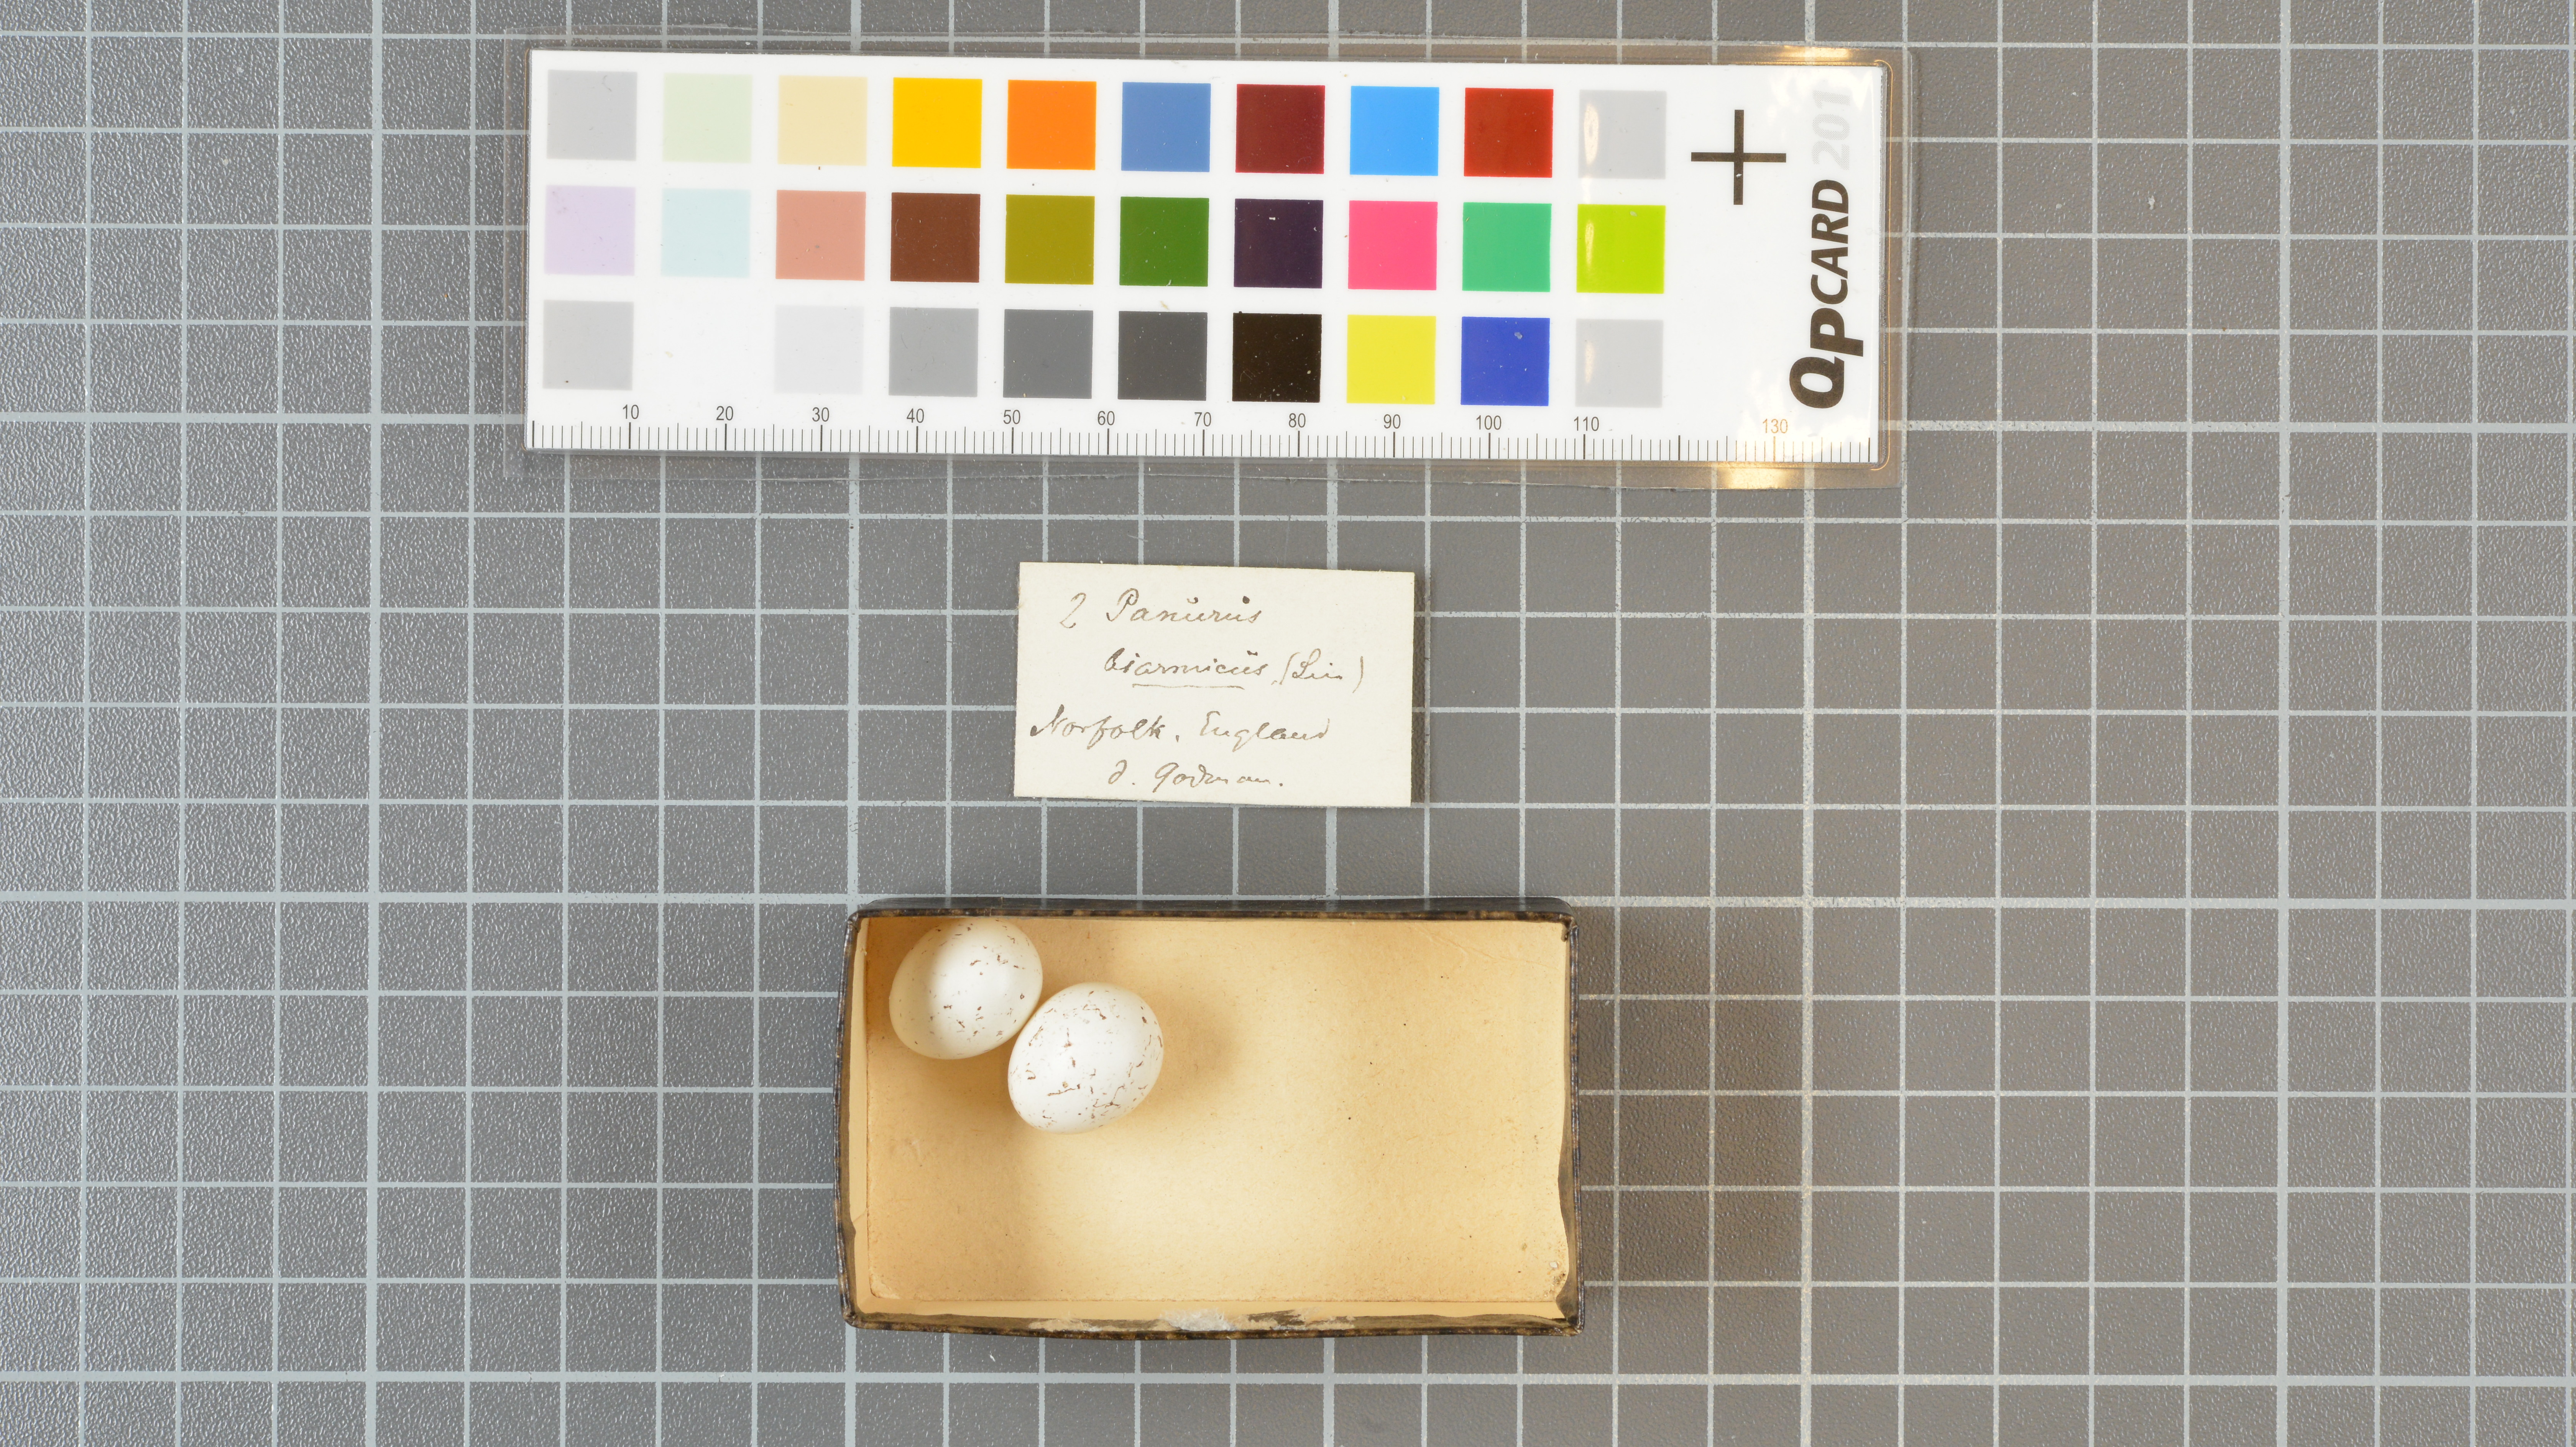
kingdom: Animalia
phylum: Chordata
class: Aves
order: Passeriformes
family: Panuridae
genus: Panurus
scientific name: Panurus biarmicus
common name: Bearded reedling
